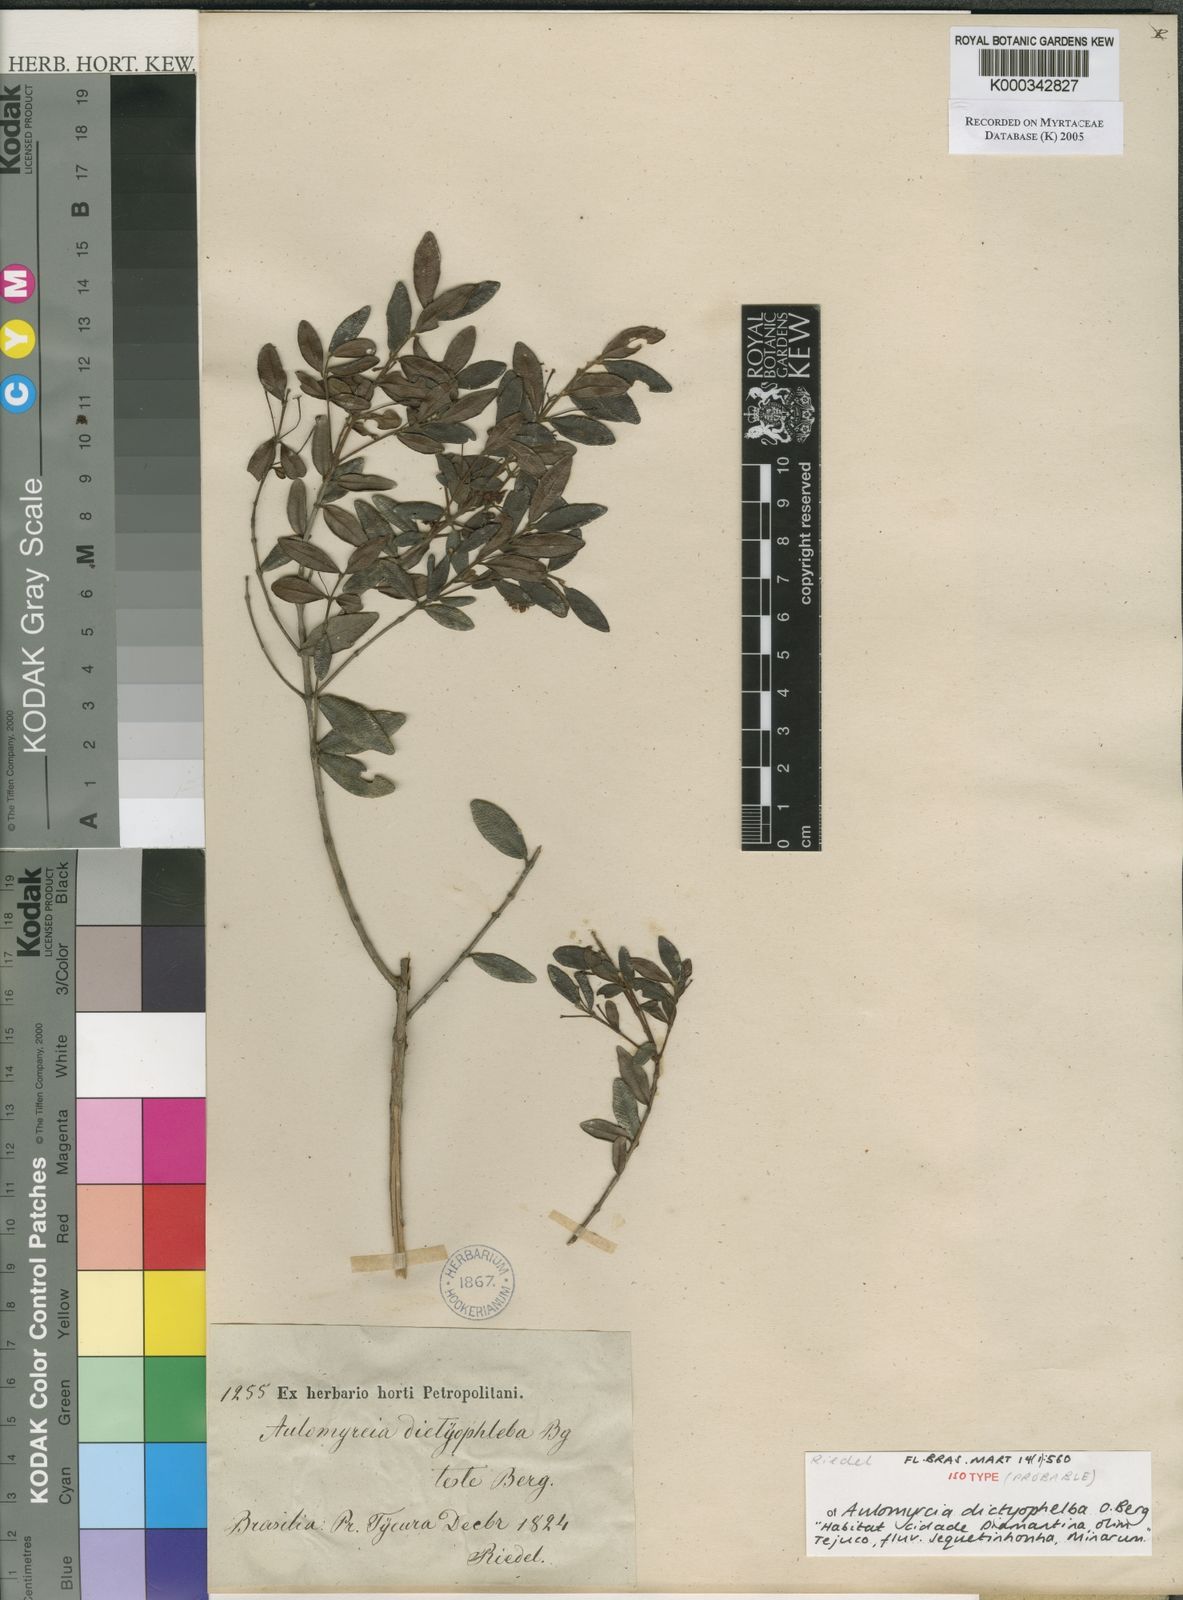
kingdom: Plantae
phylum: Tracheophyta
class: Magnoliopsida
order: Myrtales
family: Myrtaceae
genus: Myrcia
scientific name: Myrcia dictyophleba
